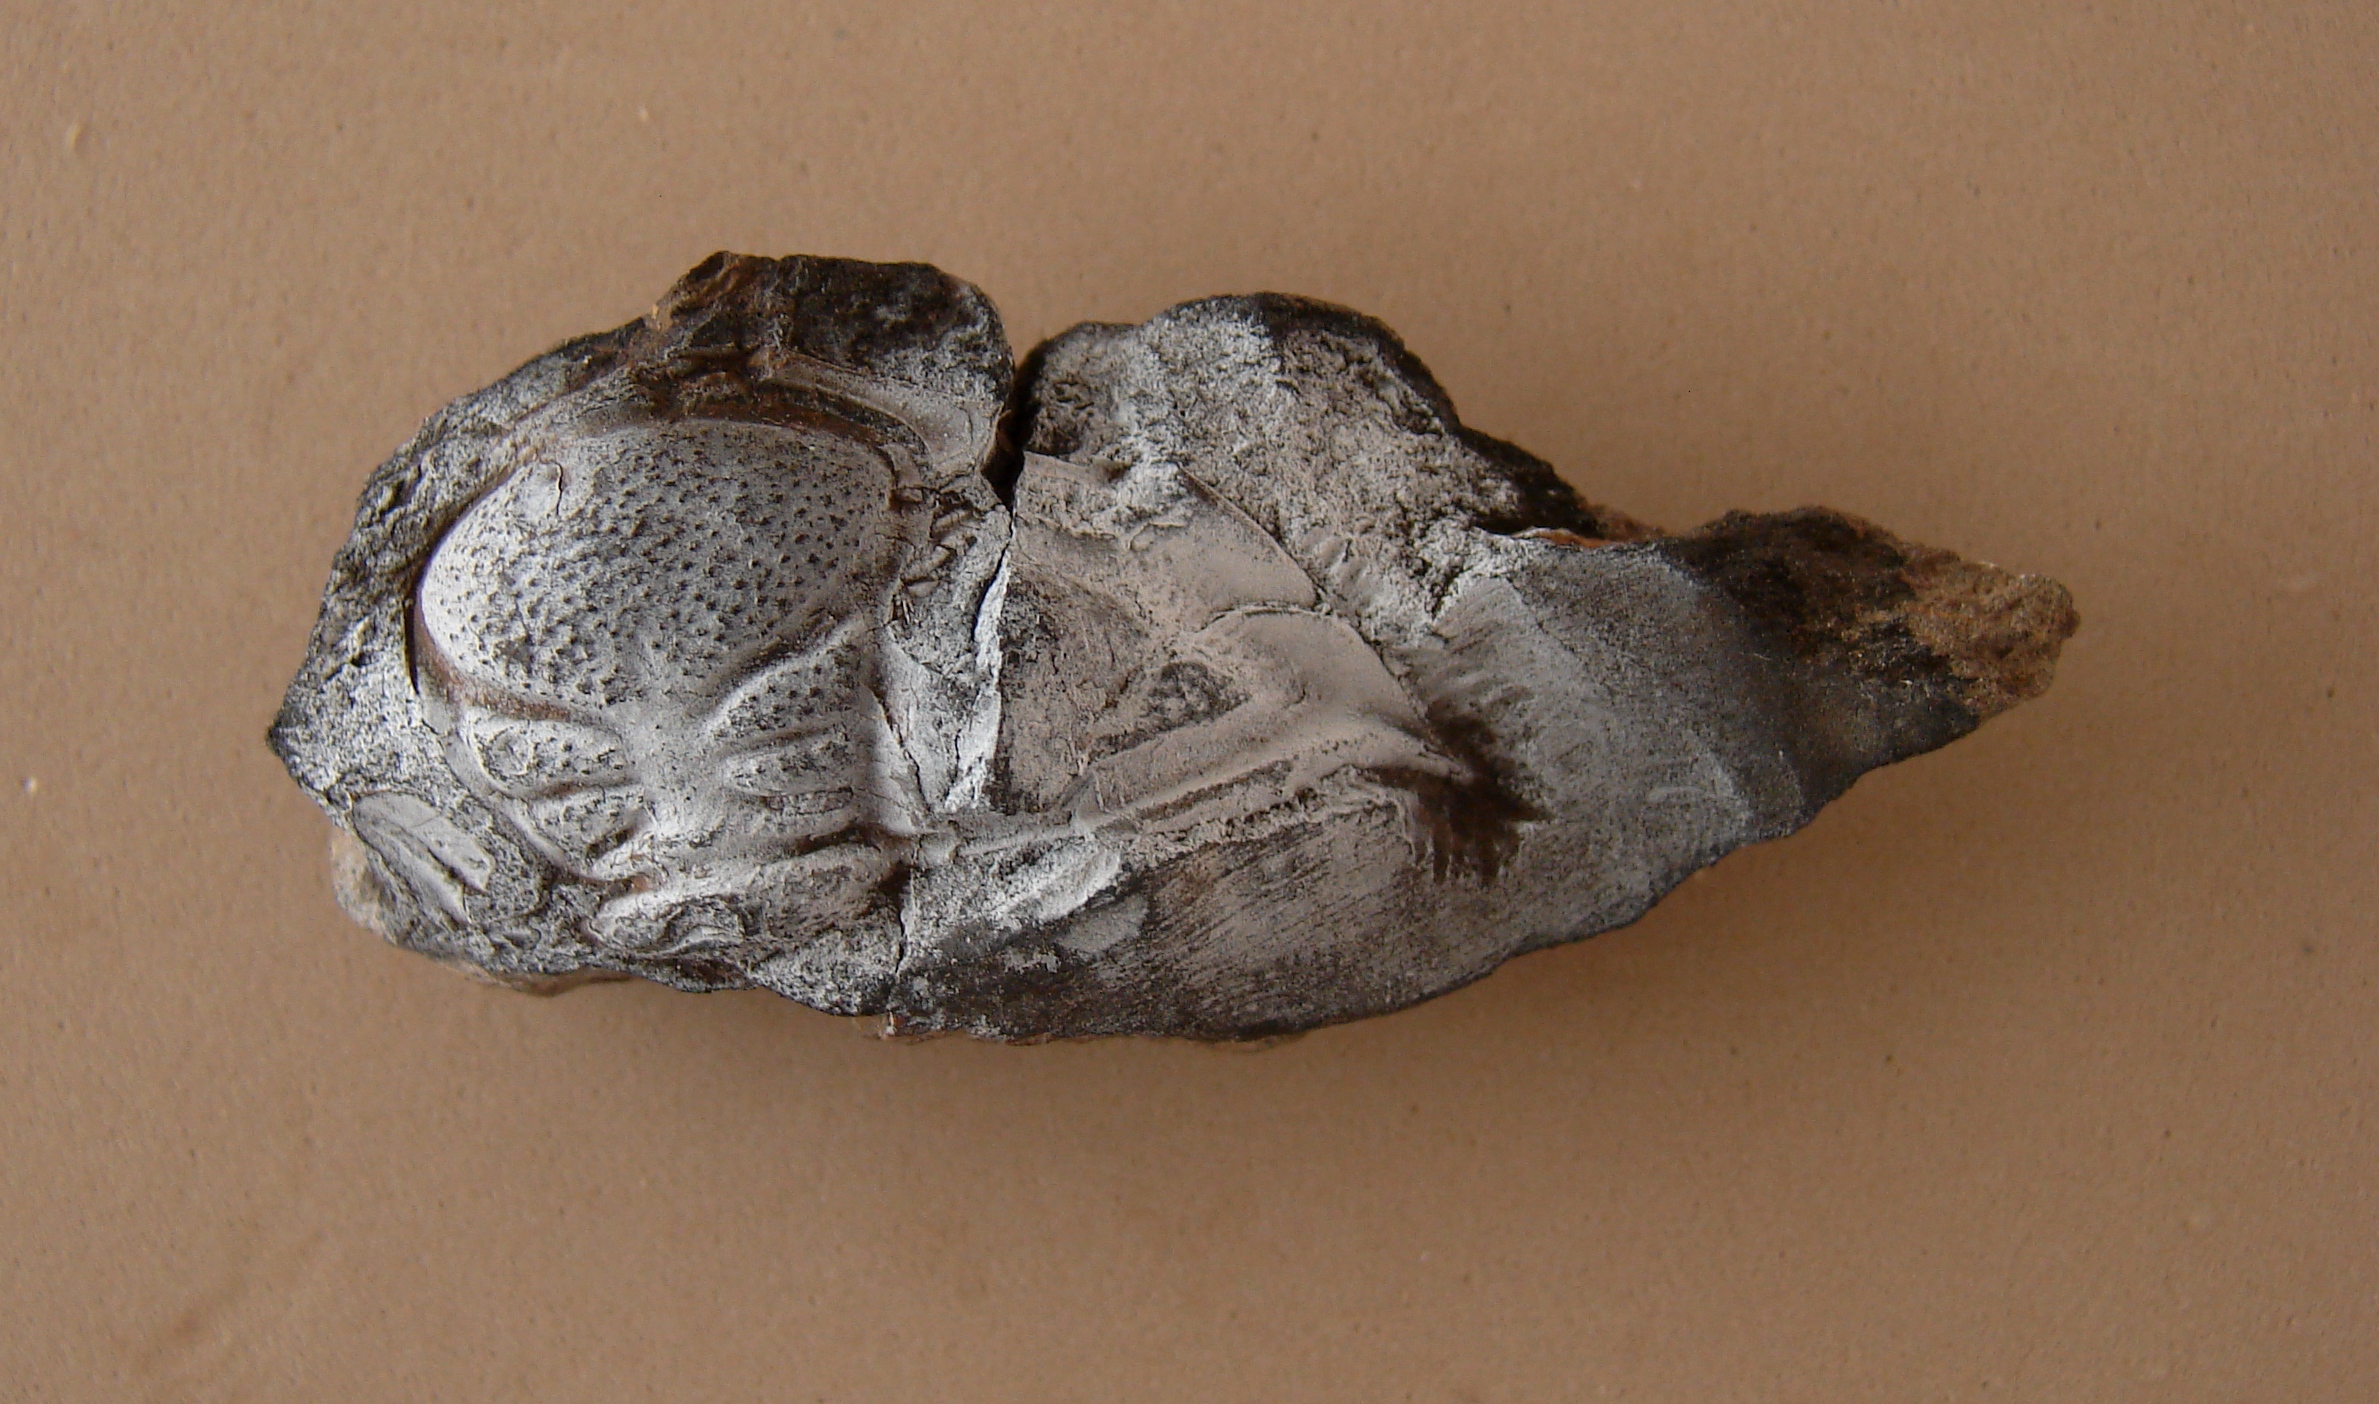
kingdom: Animalia
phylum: Arthropoda
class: Trilobita
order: Phacopida
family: Acastidae
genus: Pilletina
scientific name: Pilletina oeslingiana
